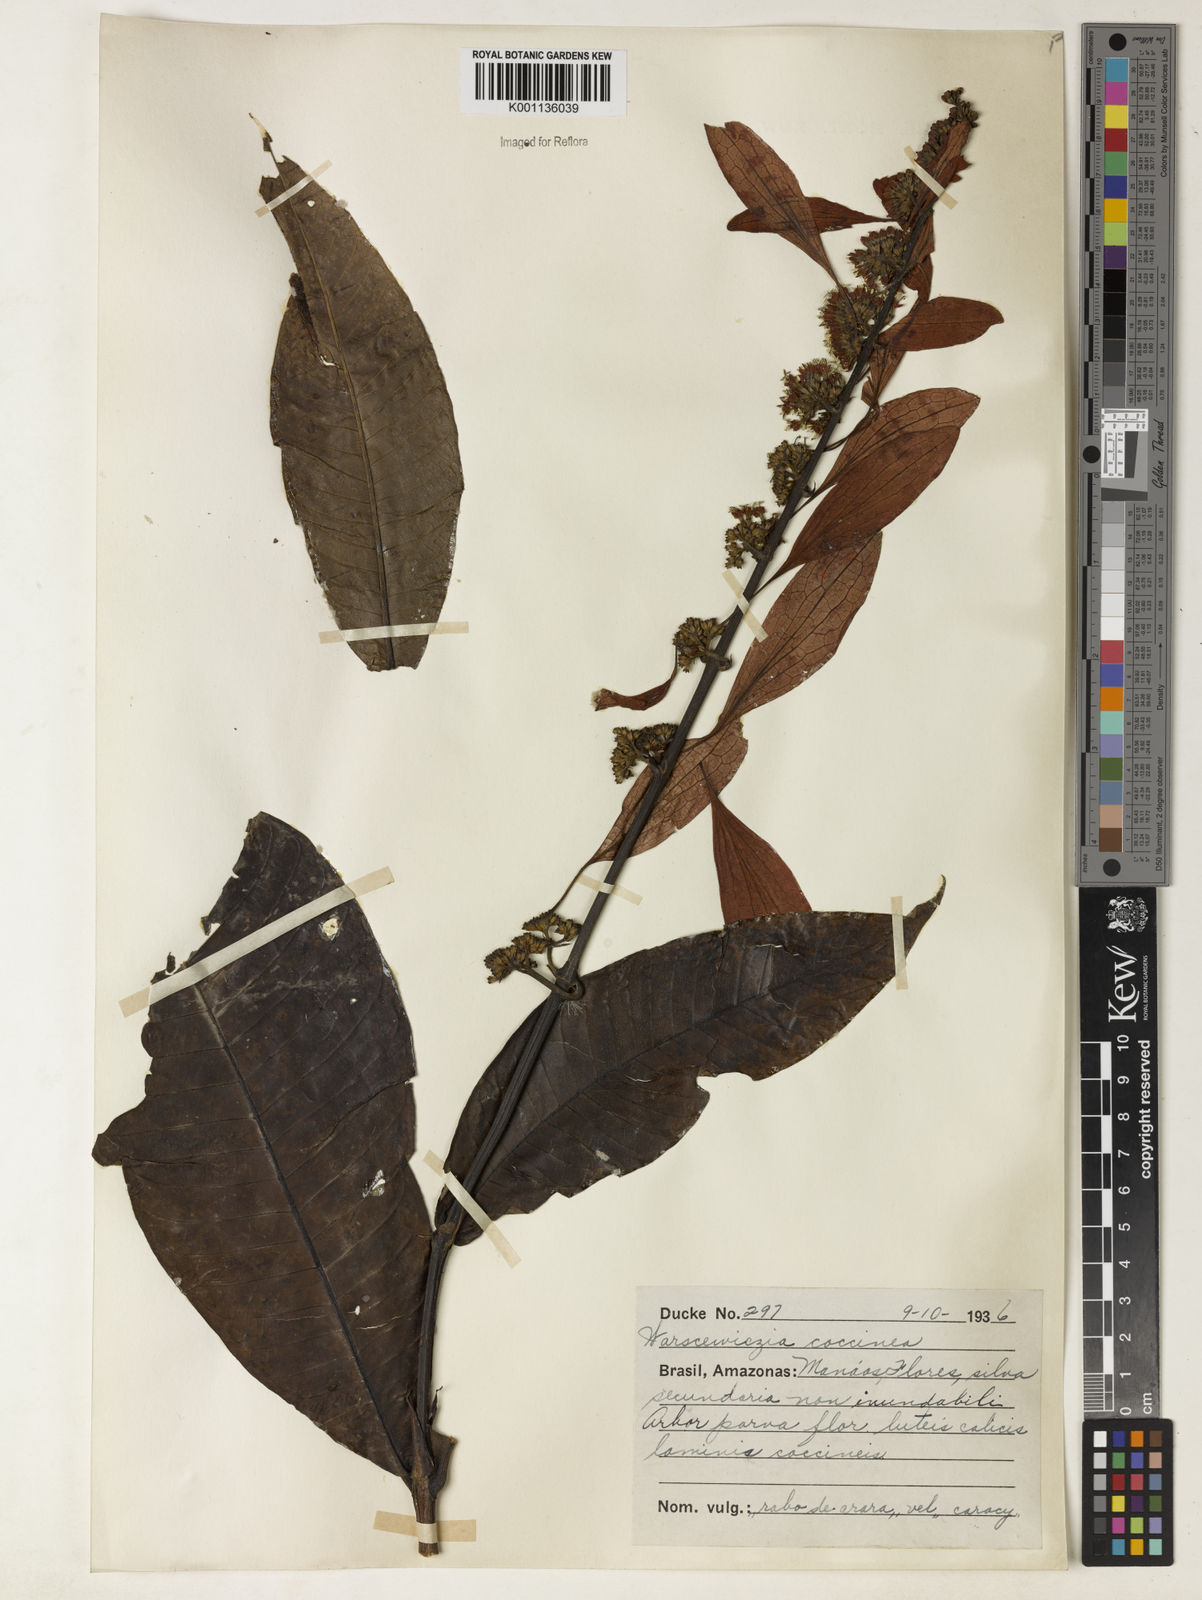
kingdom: Plantae
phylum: Tracheophyta
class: Magnoliopsida
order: Gentianales
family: Rubiaceae
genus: Warszewiczia
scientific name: Warszewiczia coccinea
